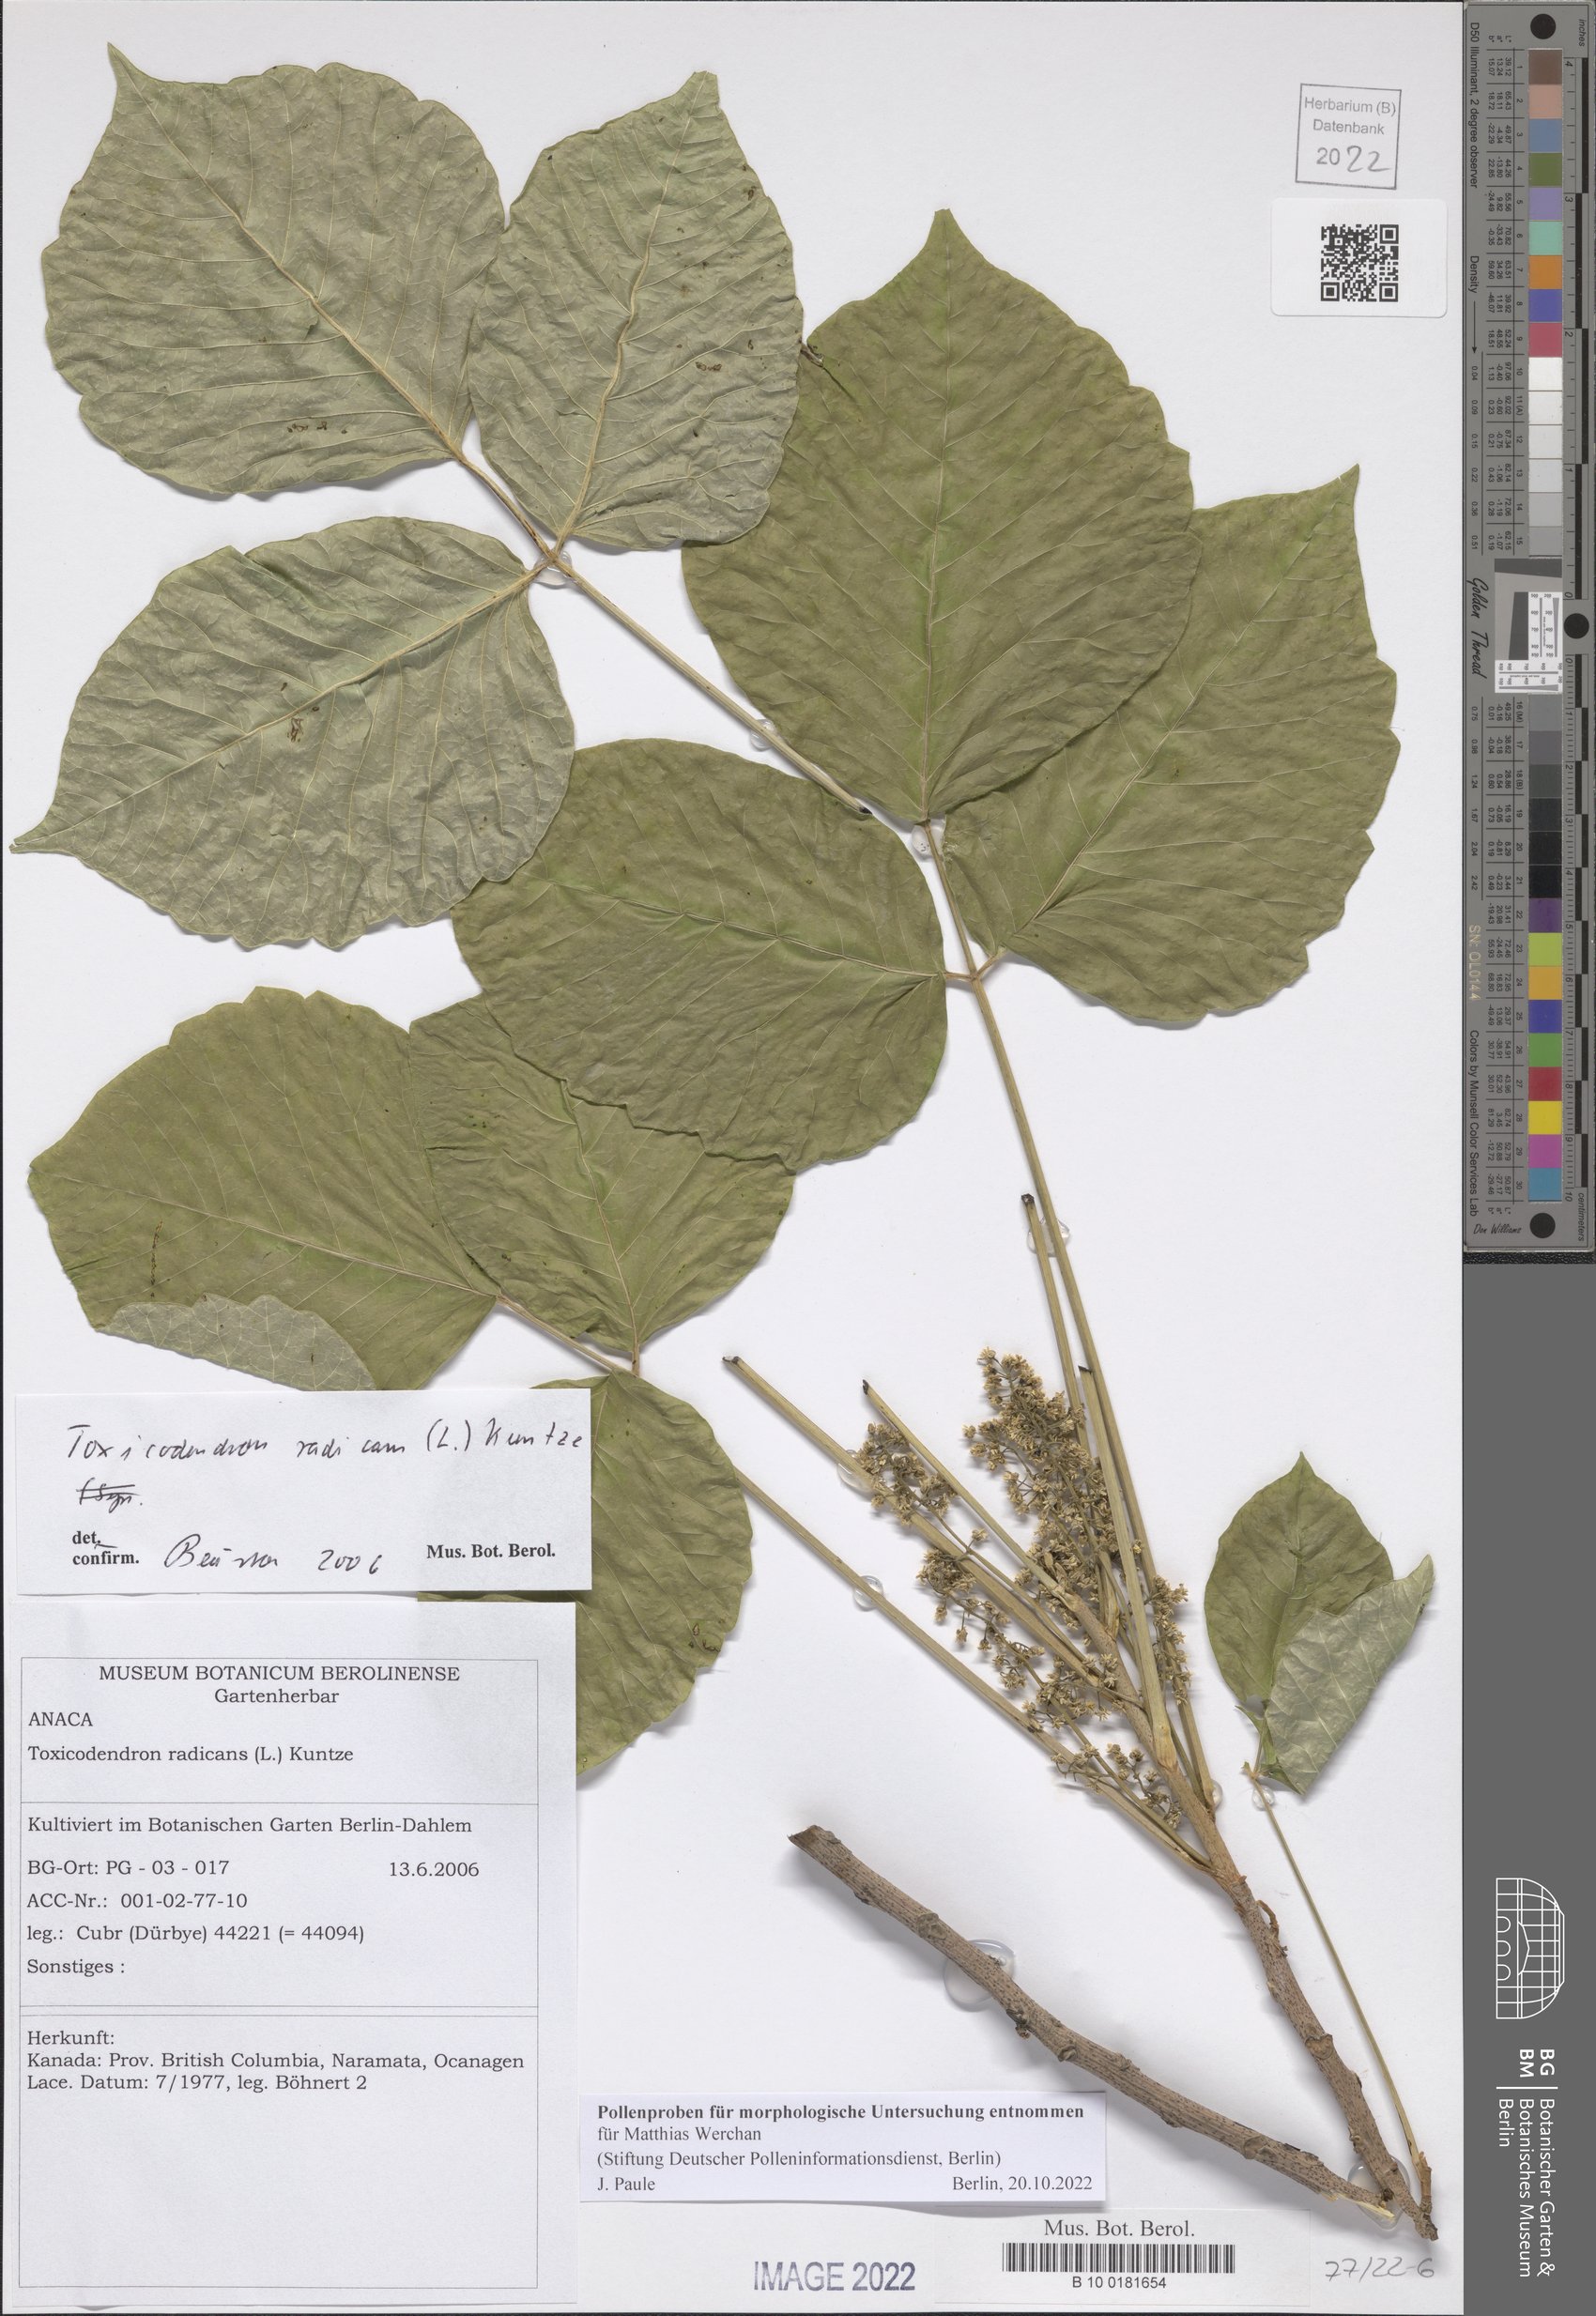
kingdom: Plantae
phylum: Tracheophyta
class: Magnoliopsida
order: Sapindales
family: Anacardiaceae
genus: Toxicodendron
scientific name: Toxicodendron radicans
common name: Poison ivy
